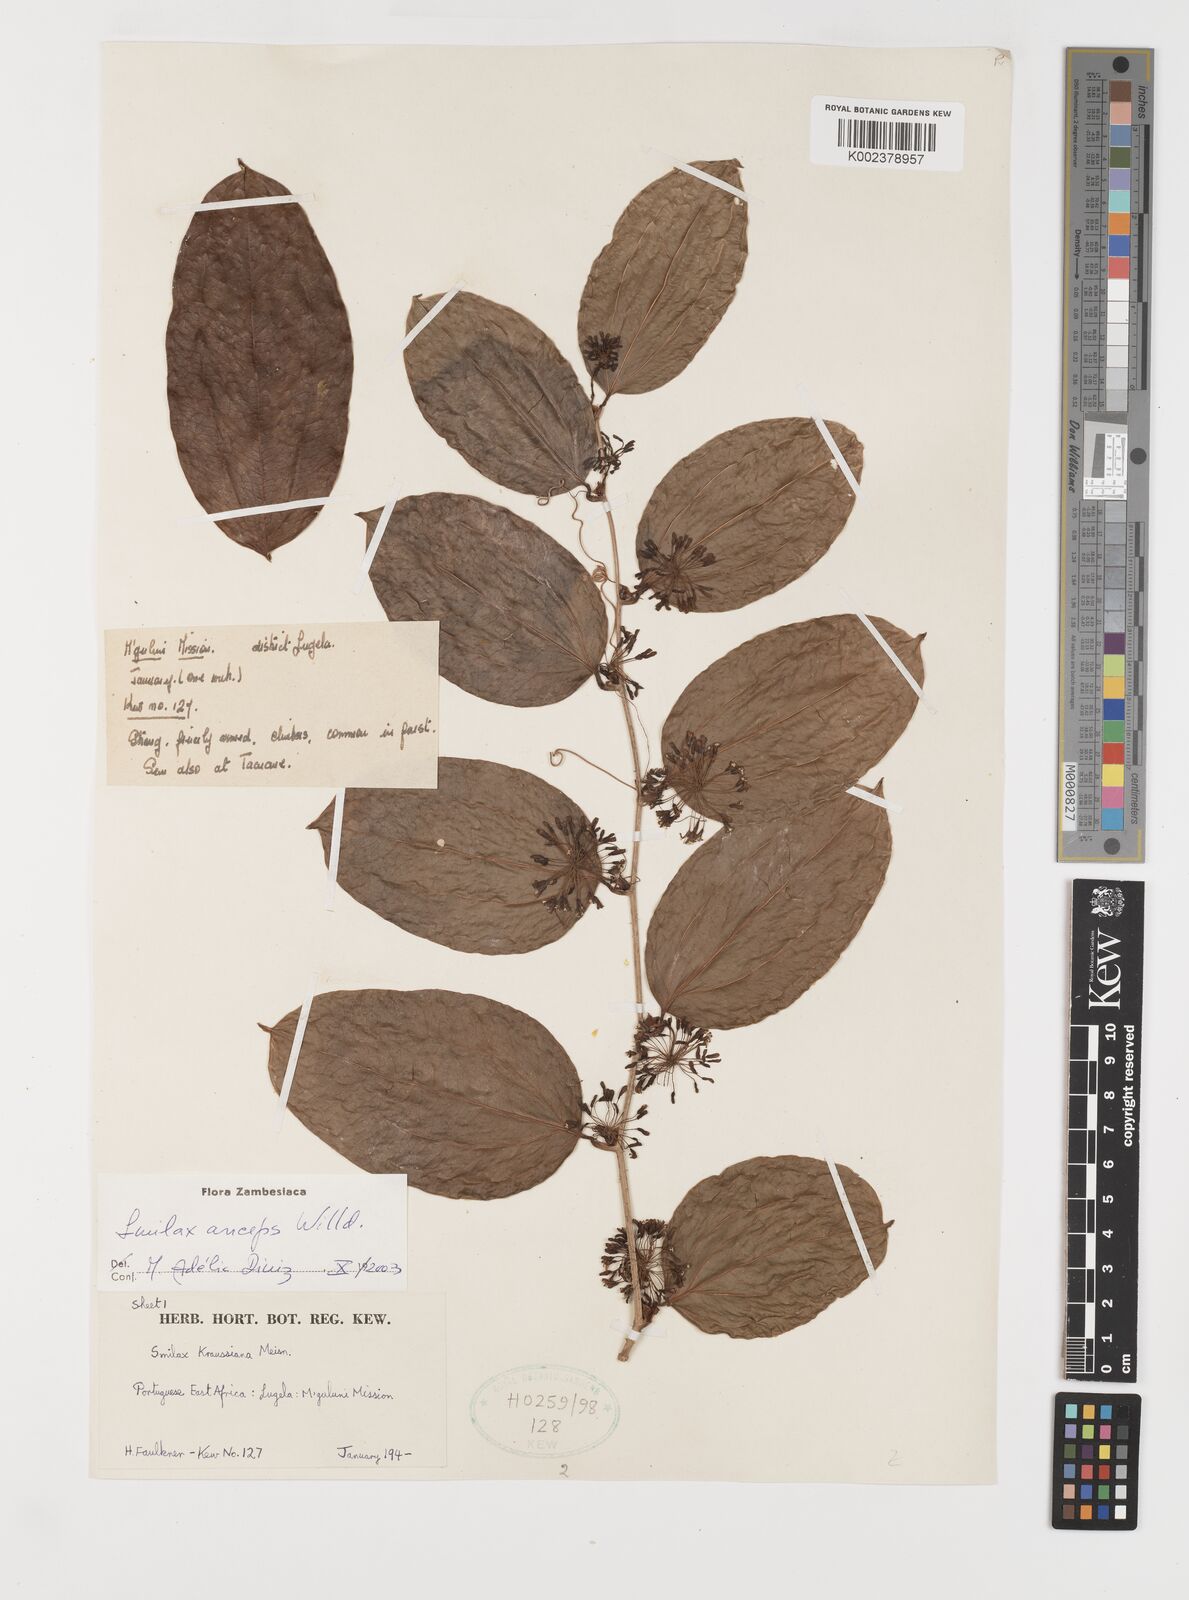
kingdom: Plantae
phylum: Tracheophyta
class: Liliopsida
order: Liliales
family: Smilacaceae
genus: Smilax
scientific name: Smilax anceps
